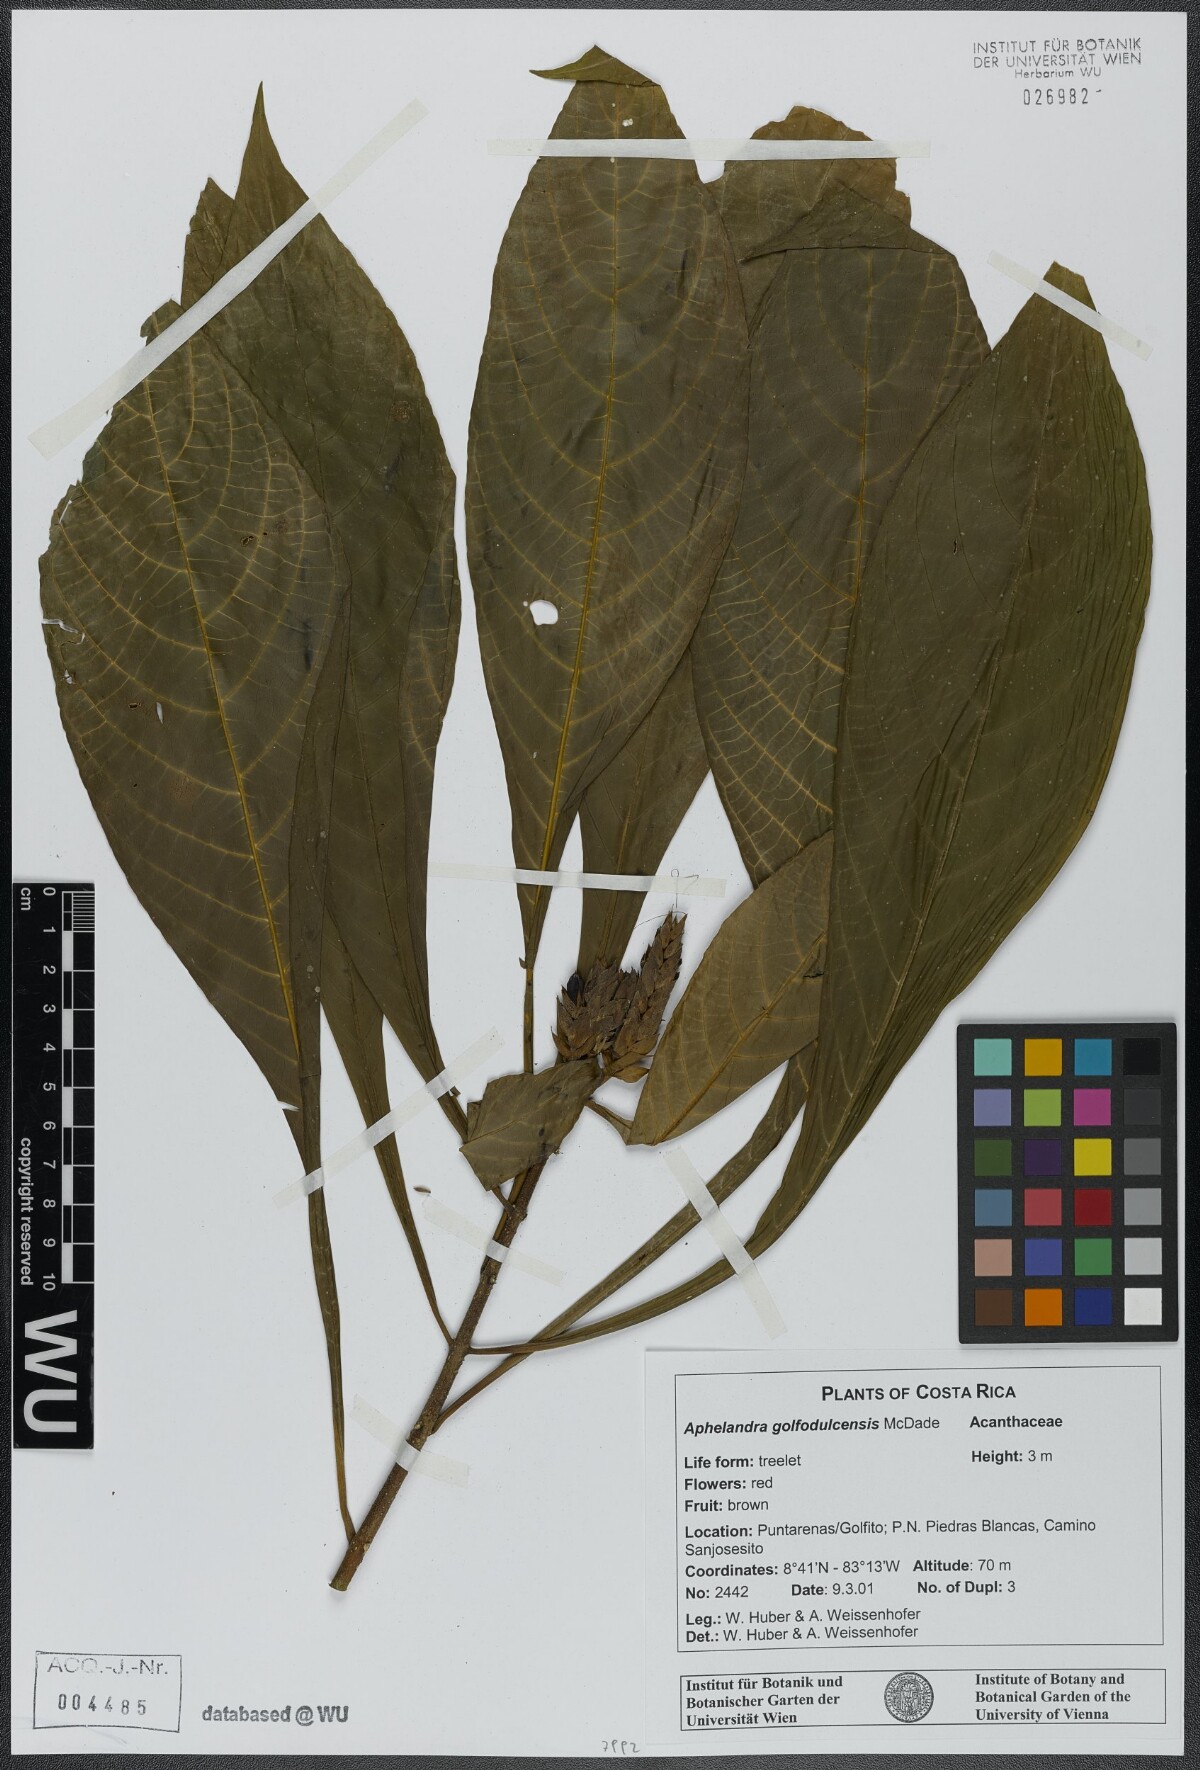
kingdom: Plantae
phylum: Tracheophyta
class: Magnoliopsida
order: Lamiales
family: Acanthaceae
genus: Aphelandra
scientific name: Aphelandra golfodulcensis
